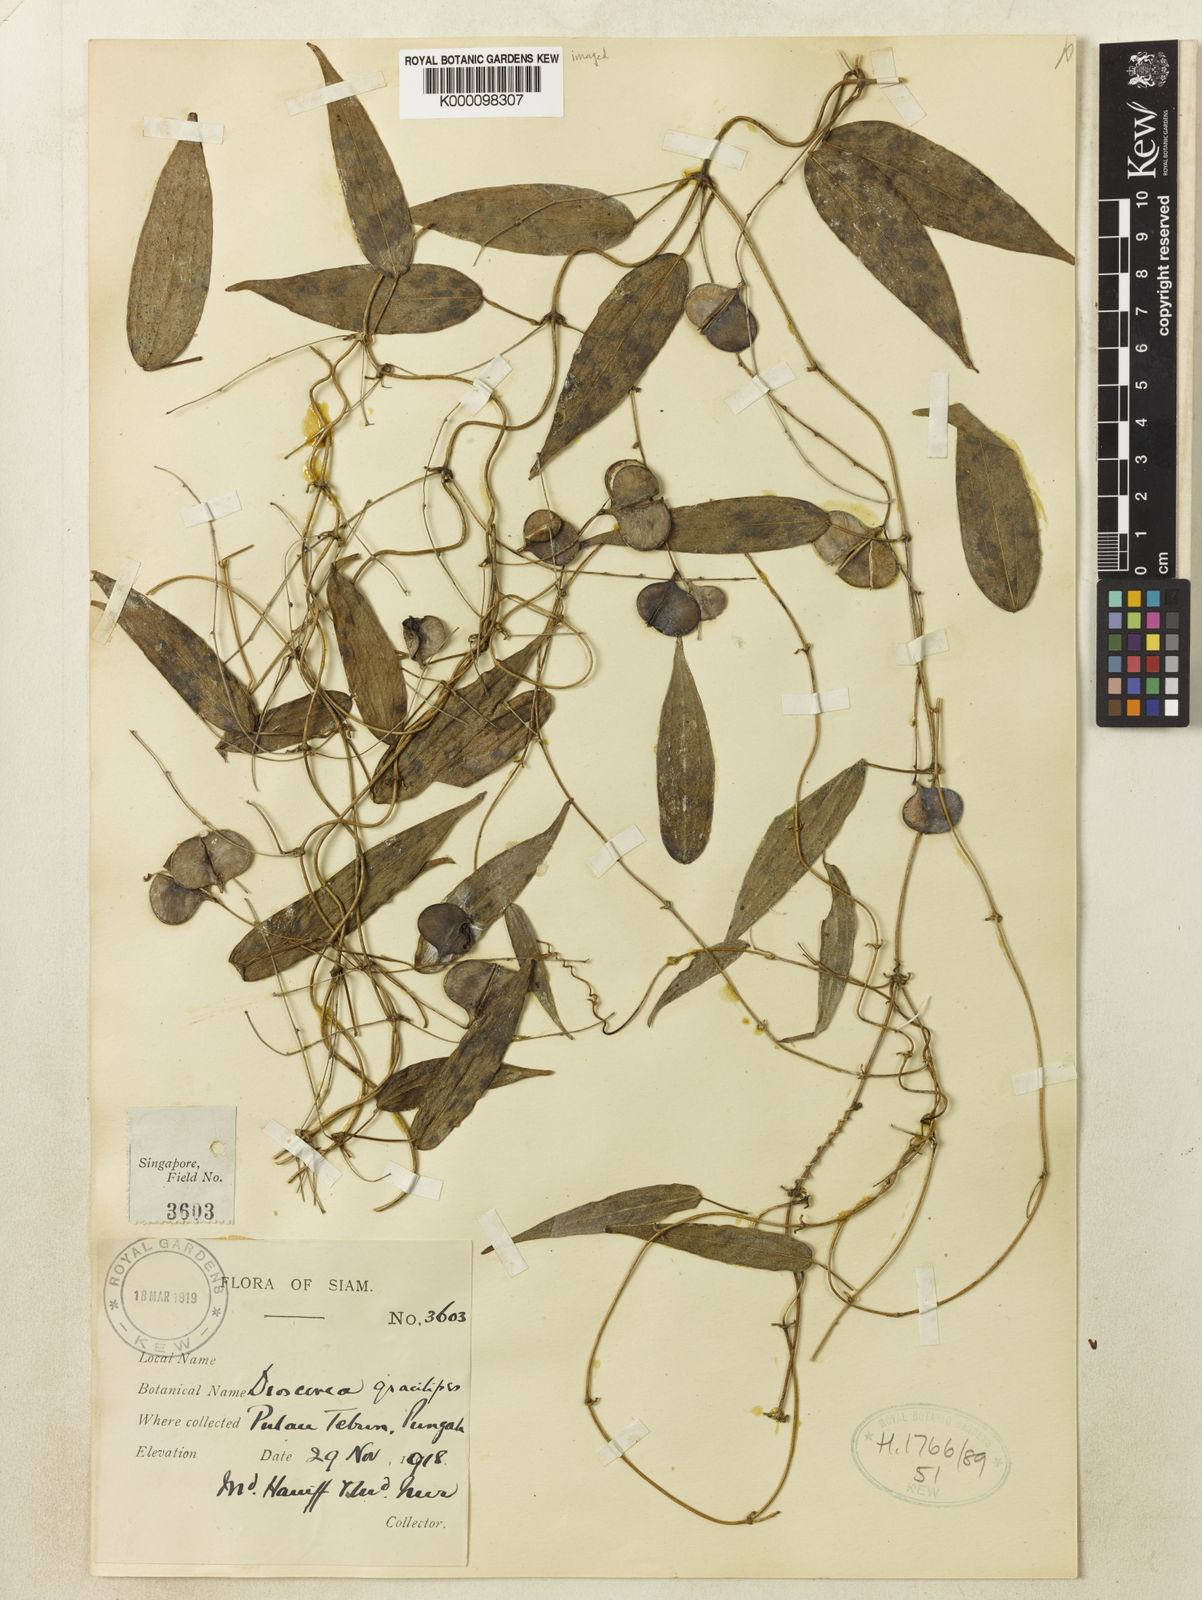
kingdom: Plantae
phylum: Tracheophyta
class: Liliopsida
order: Dioscoreales
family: Dioscoreaceae
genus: Dioscorea
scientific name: Dioscorea gracilipes
